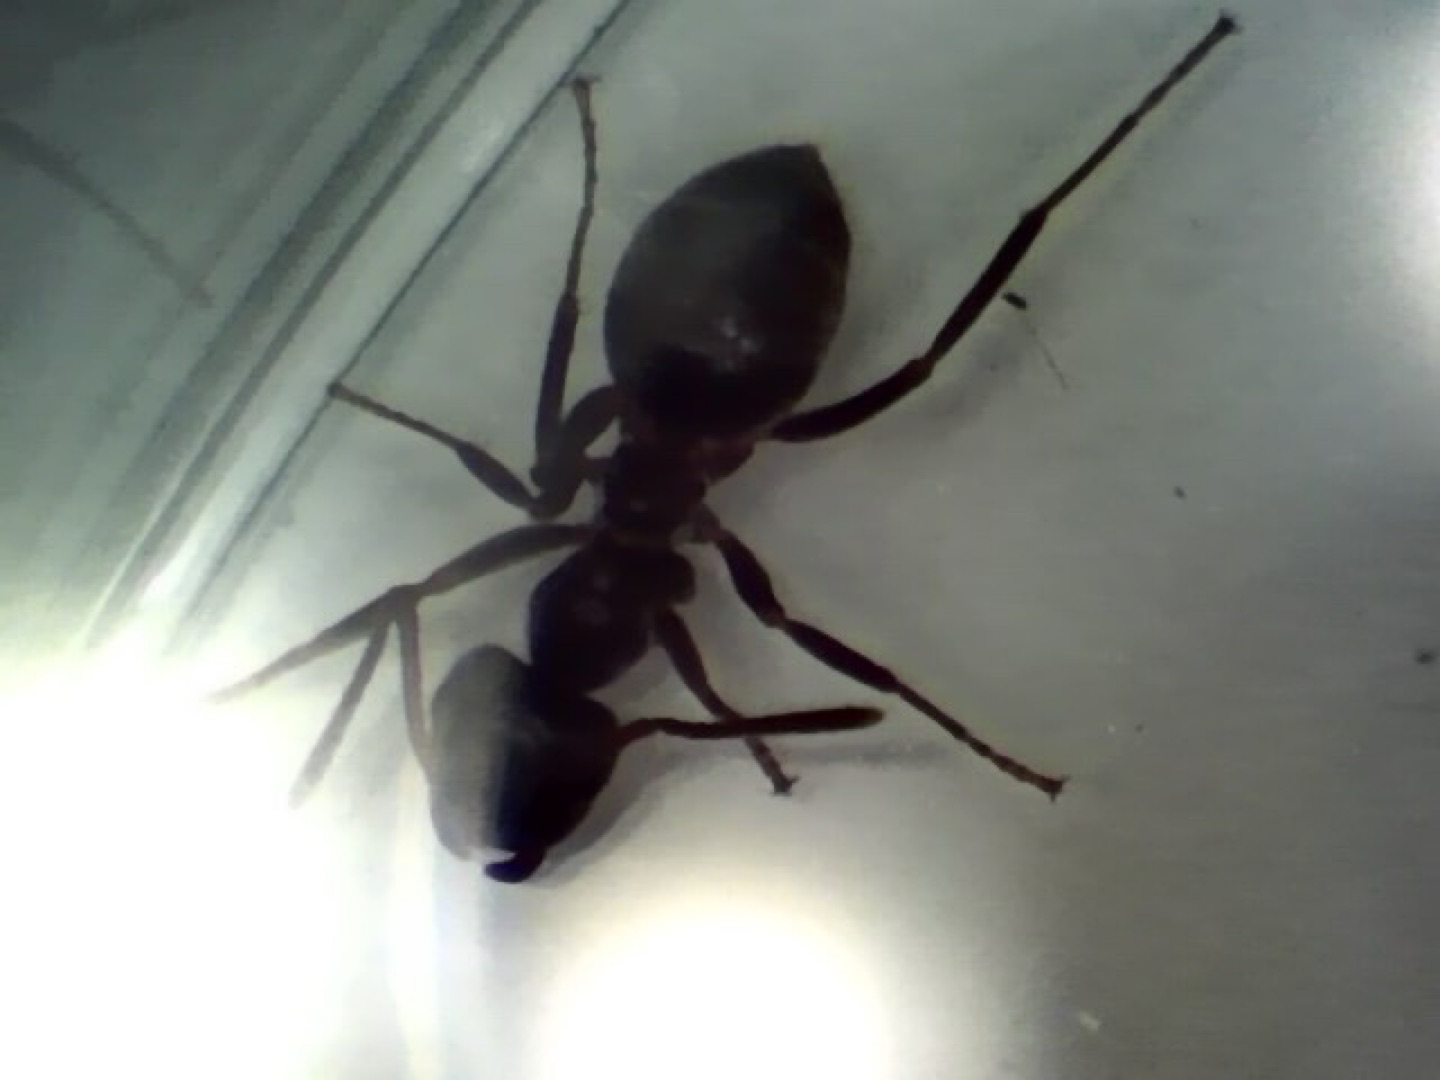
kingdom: Animalia
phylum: Arthropoda
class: Insecta
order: Hymenoptera
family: Formicidae
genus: Lasius
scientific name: Lasius
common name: Jordmyrer
